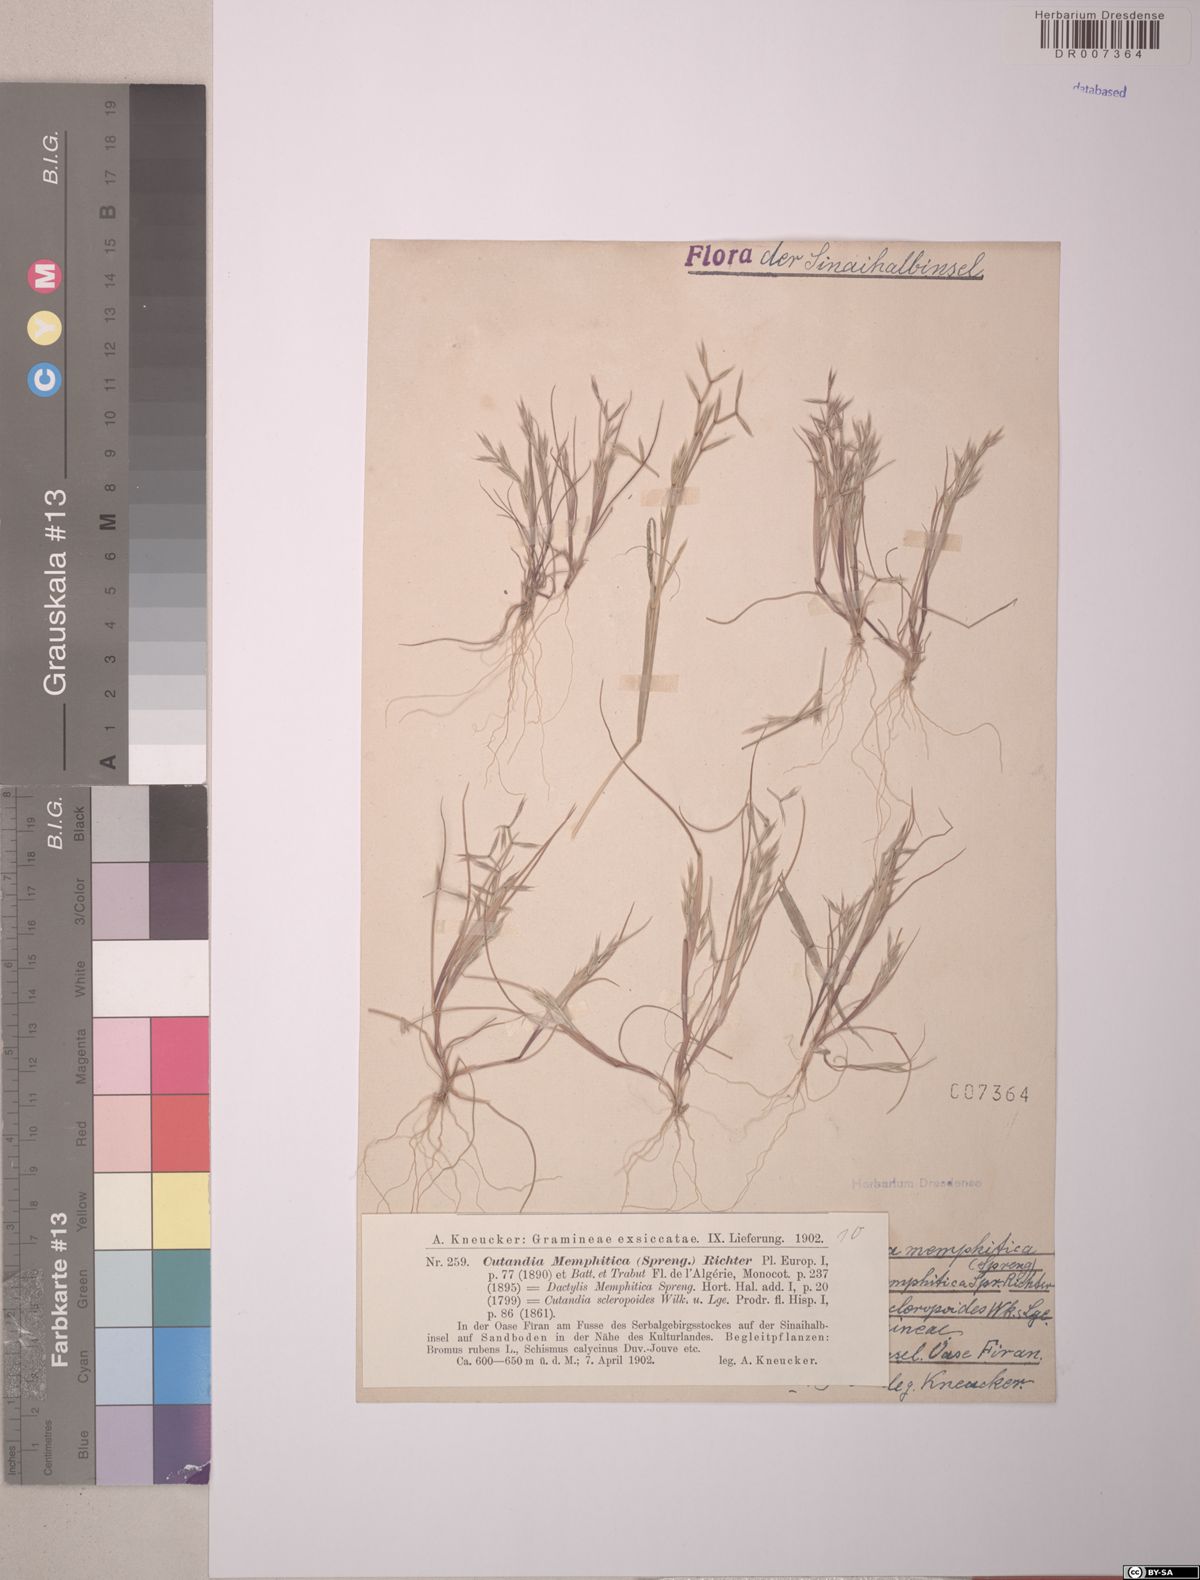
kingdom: Plantae
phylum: Tracheophyta
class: Liliopsida
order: Poales
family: Poaceae
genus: Cutandia
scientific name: Cutandia memphitica
